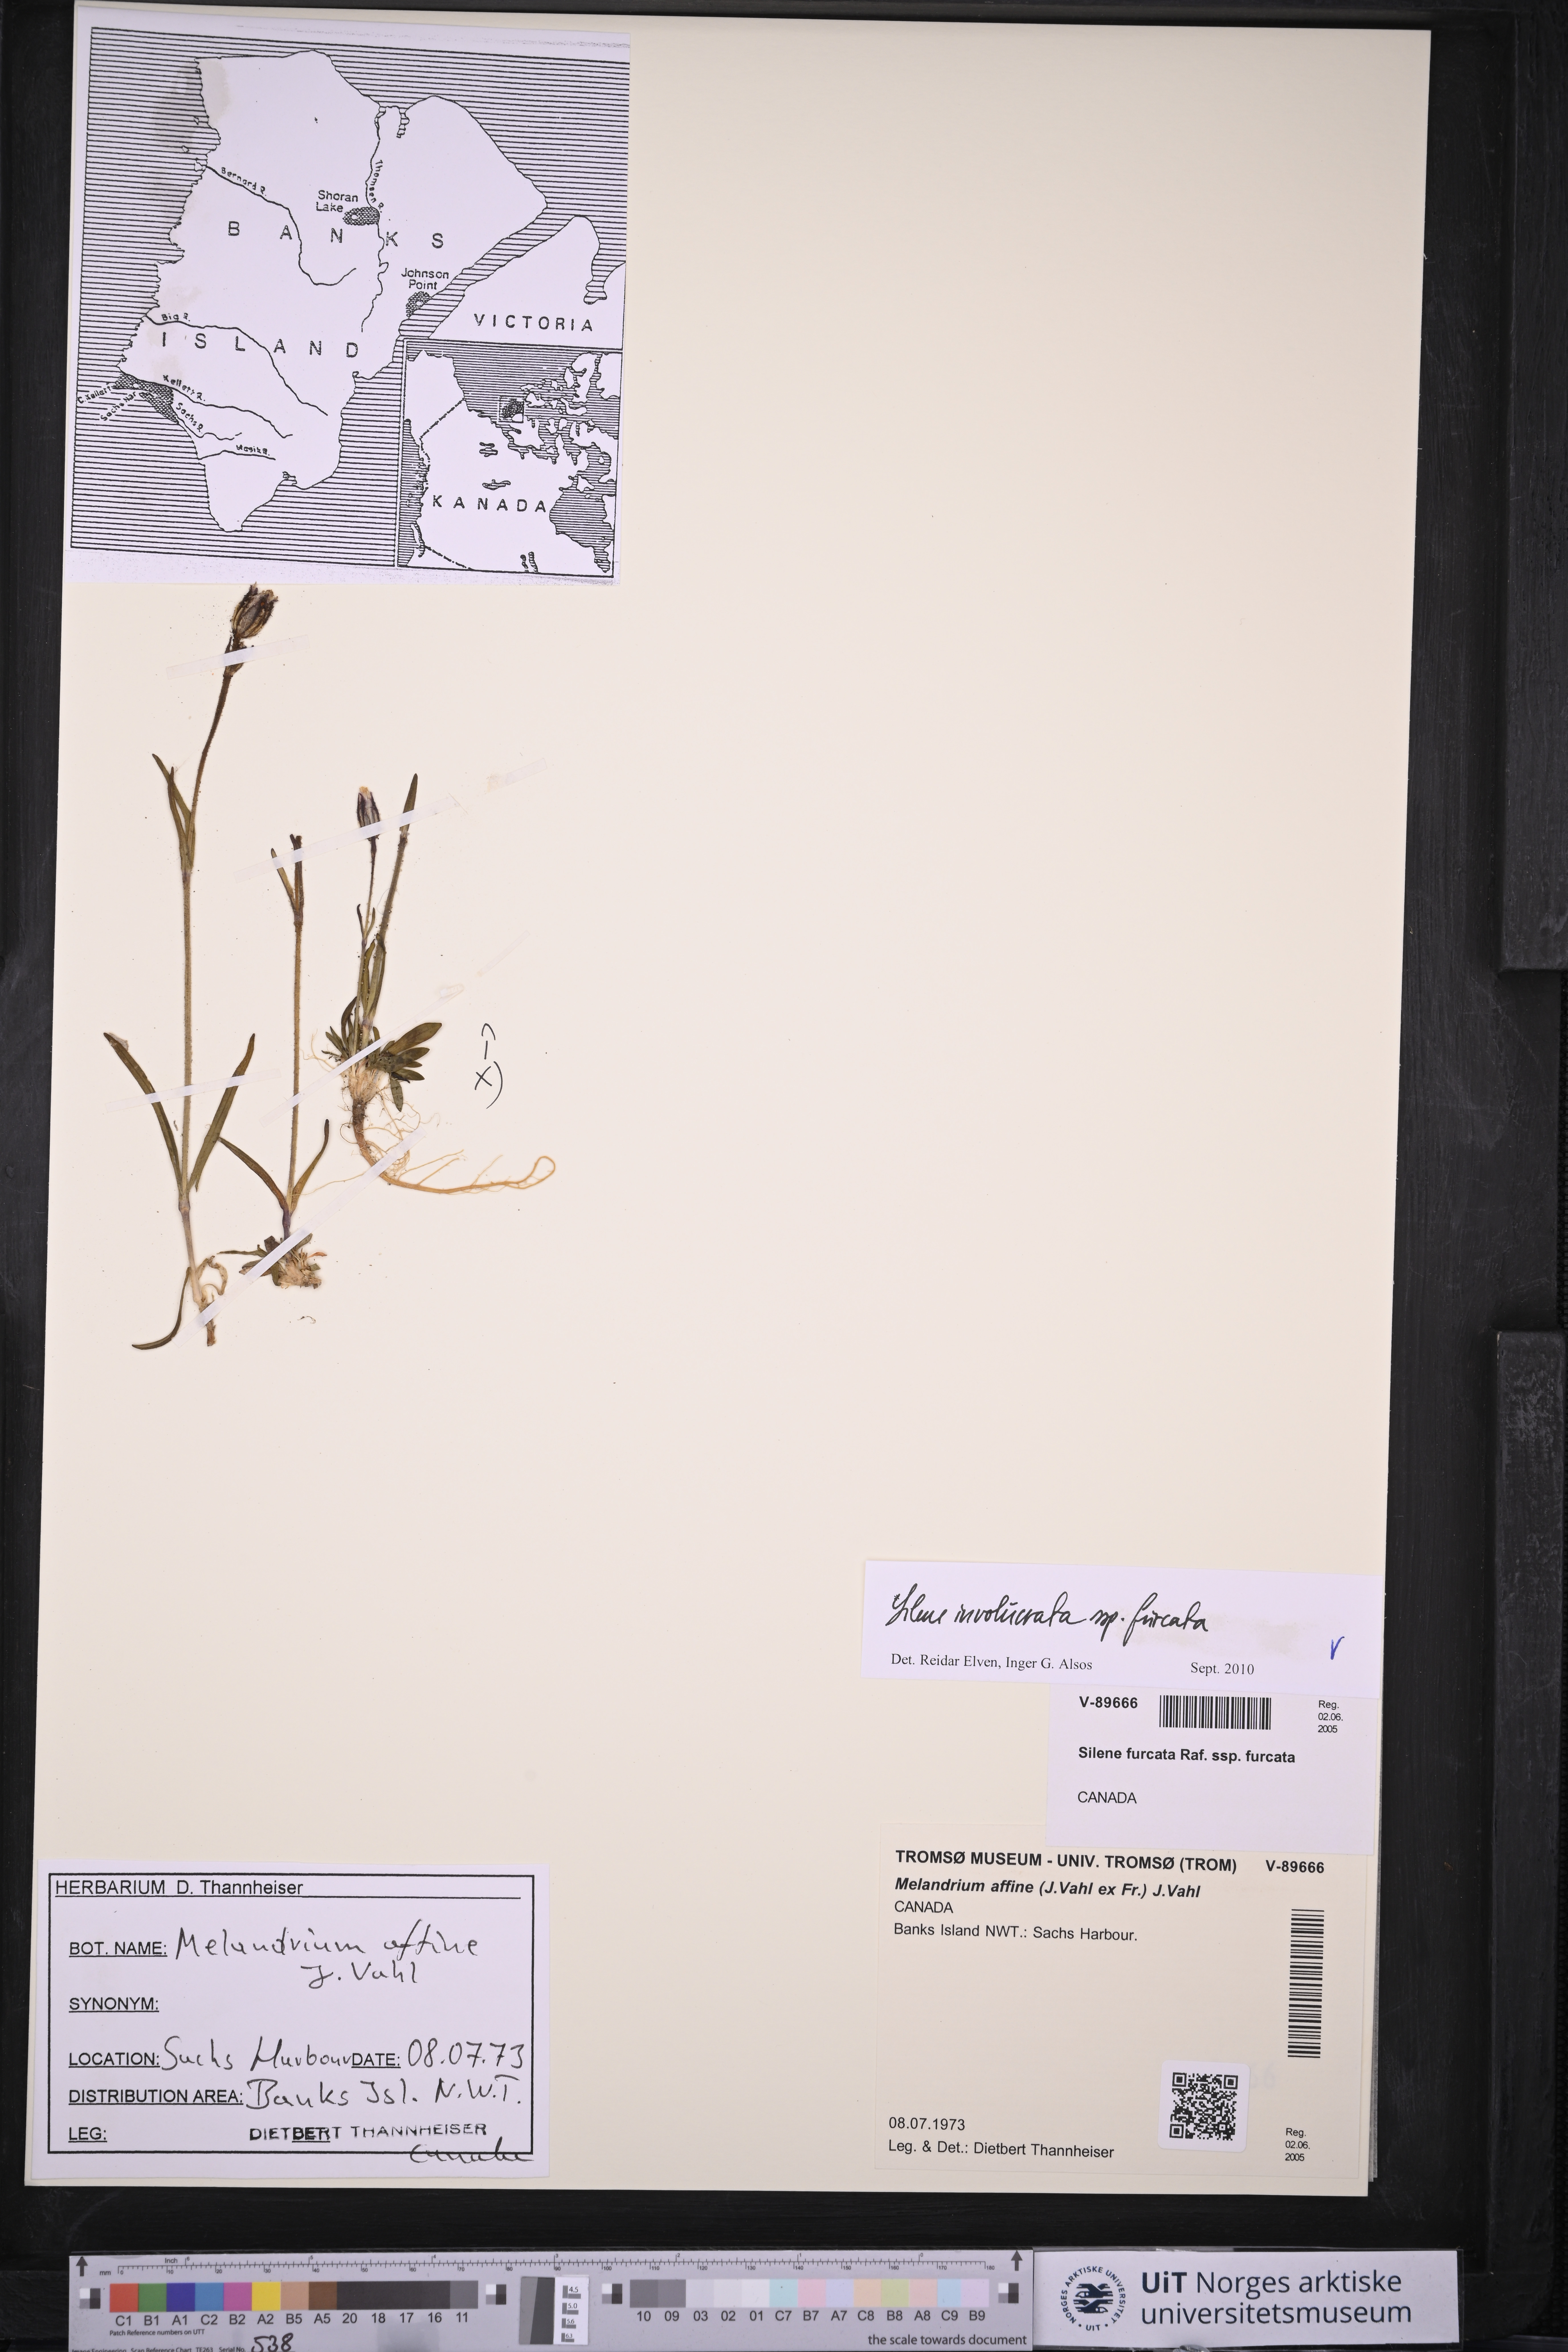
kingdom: Plantae
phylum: Tracheophyta
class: Magnoliopsida
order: Caryophyllales
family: Caryophyllaceae
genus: Silene
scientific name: Silene involucrata
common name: Greater arctic campion
